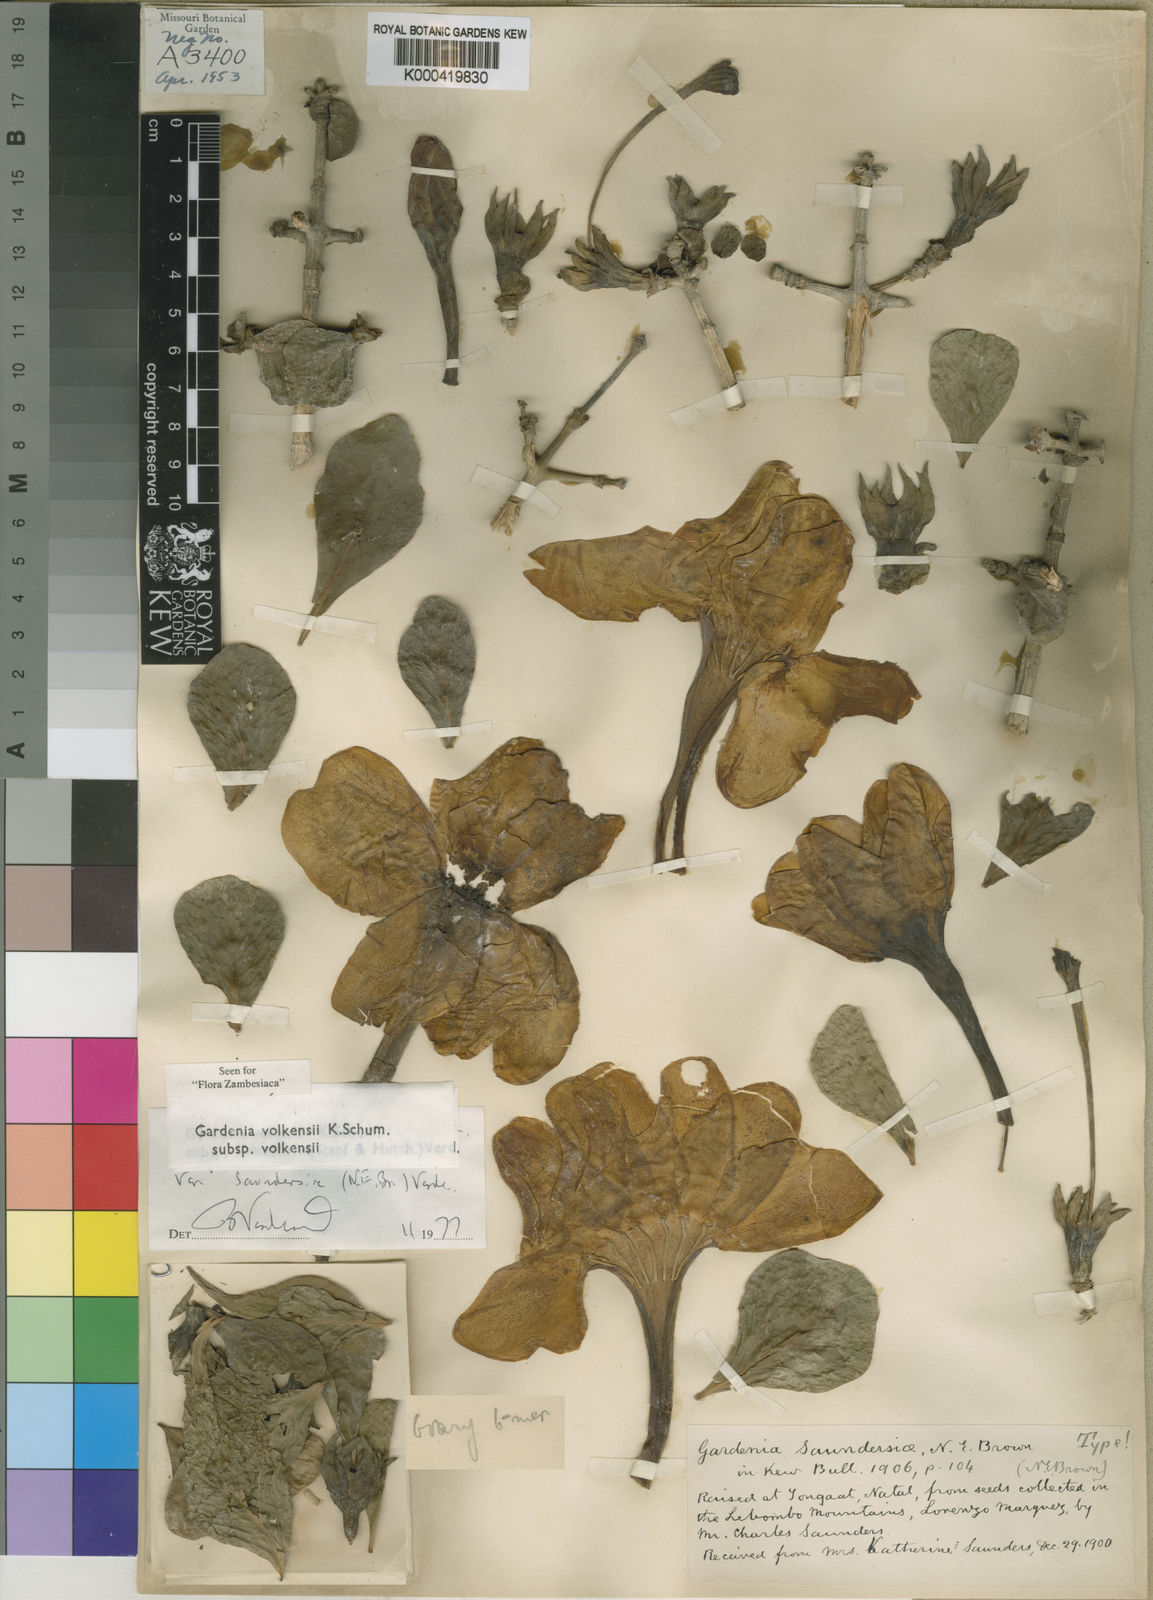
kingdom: Plantae
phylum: Tracheophyta
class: Magnoliopsida
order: Gentianales
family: Rubiaceae
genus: Gardenia
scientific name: Gardenia volkensii
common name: Common gardenia
